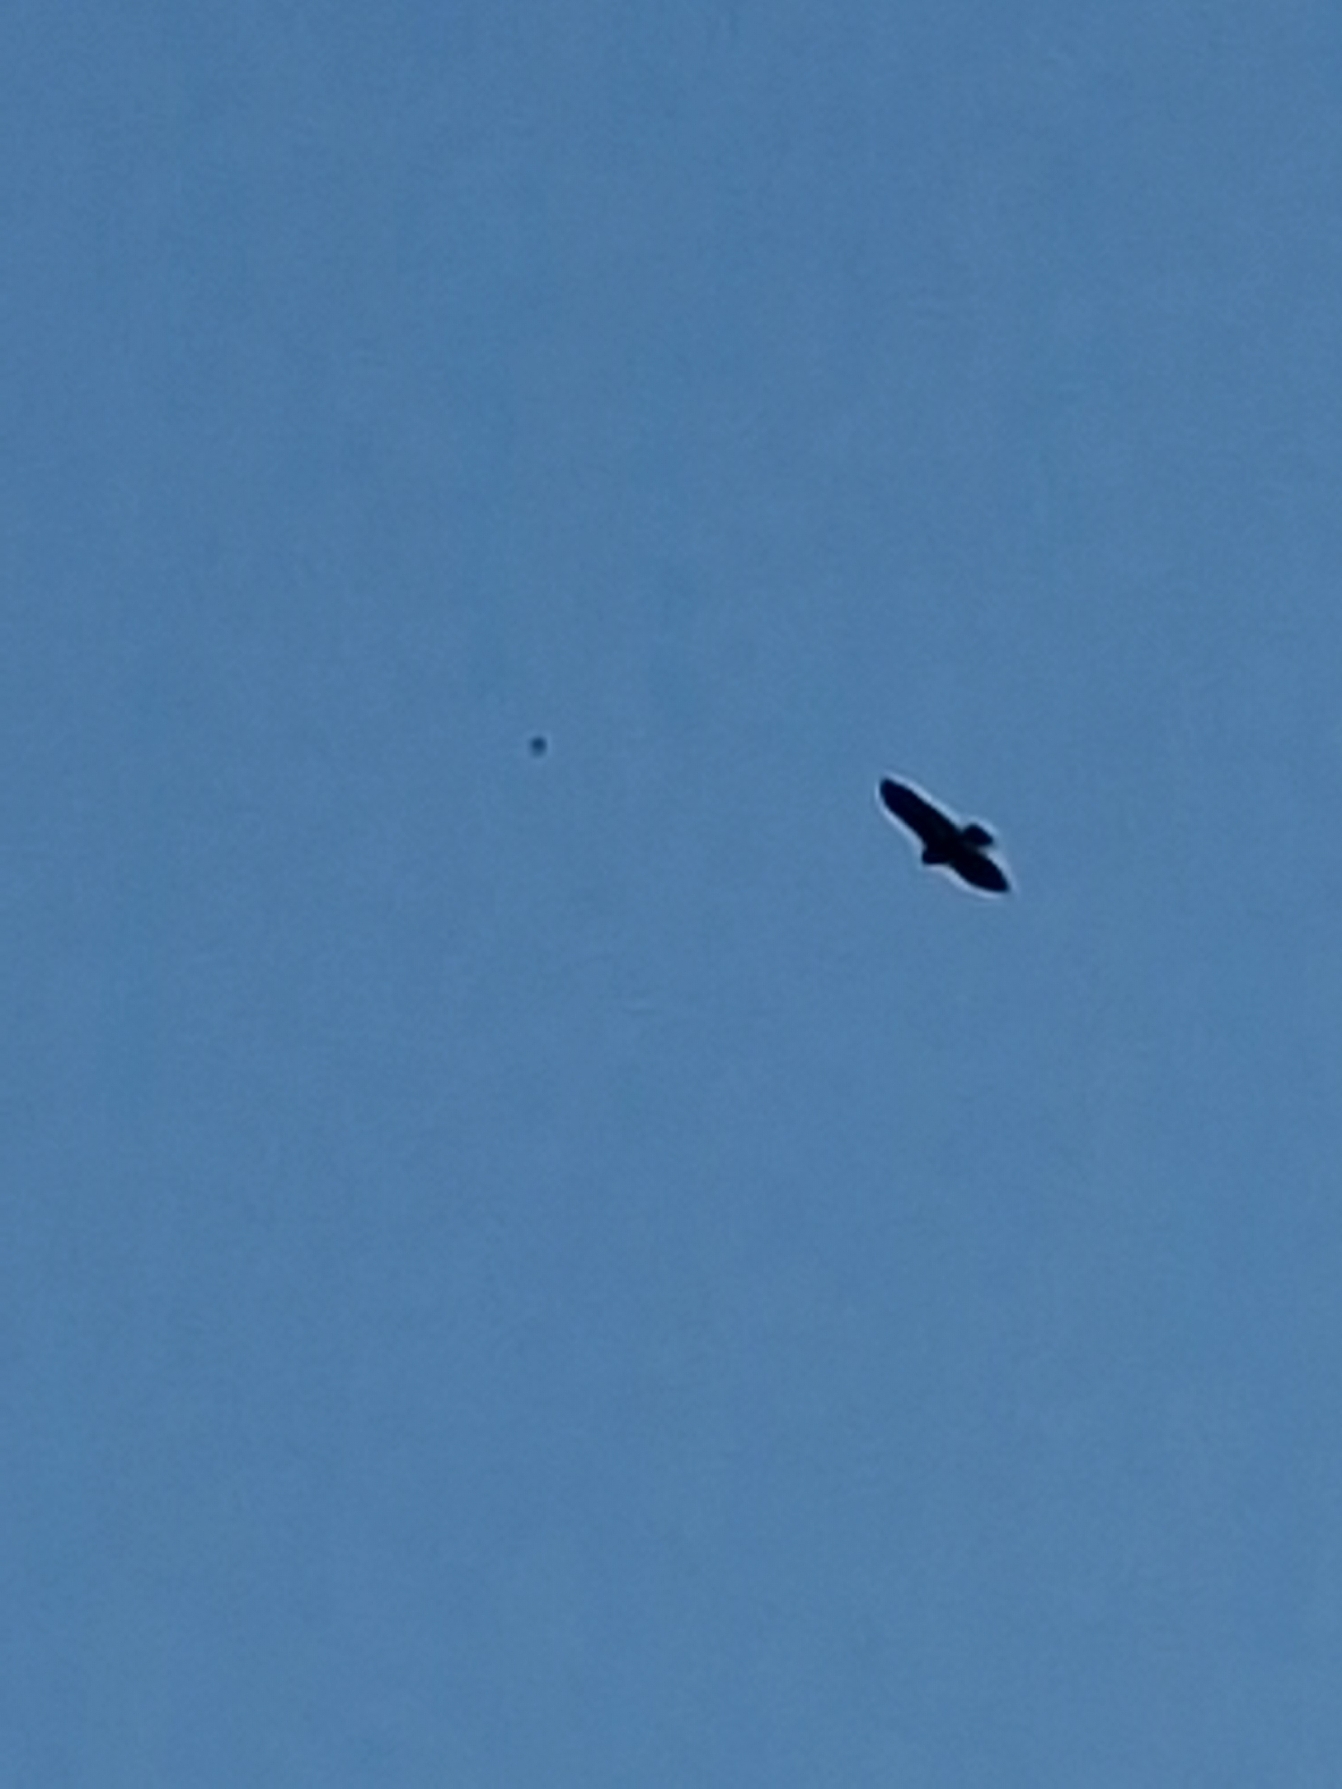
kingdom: Animalia
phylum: Chordata
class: Aves
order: Accipitriformes
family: Accipitridae
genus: Buteo
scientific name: Buteo buteo
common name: Musvåge
